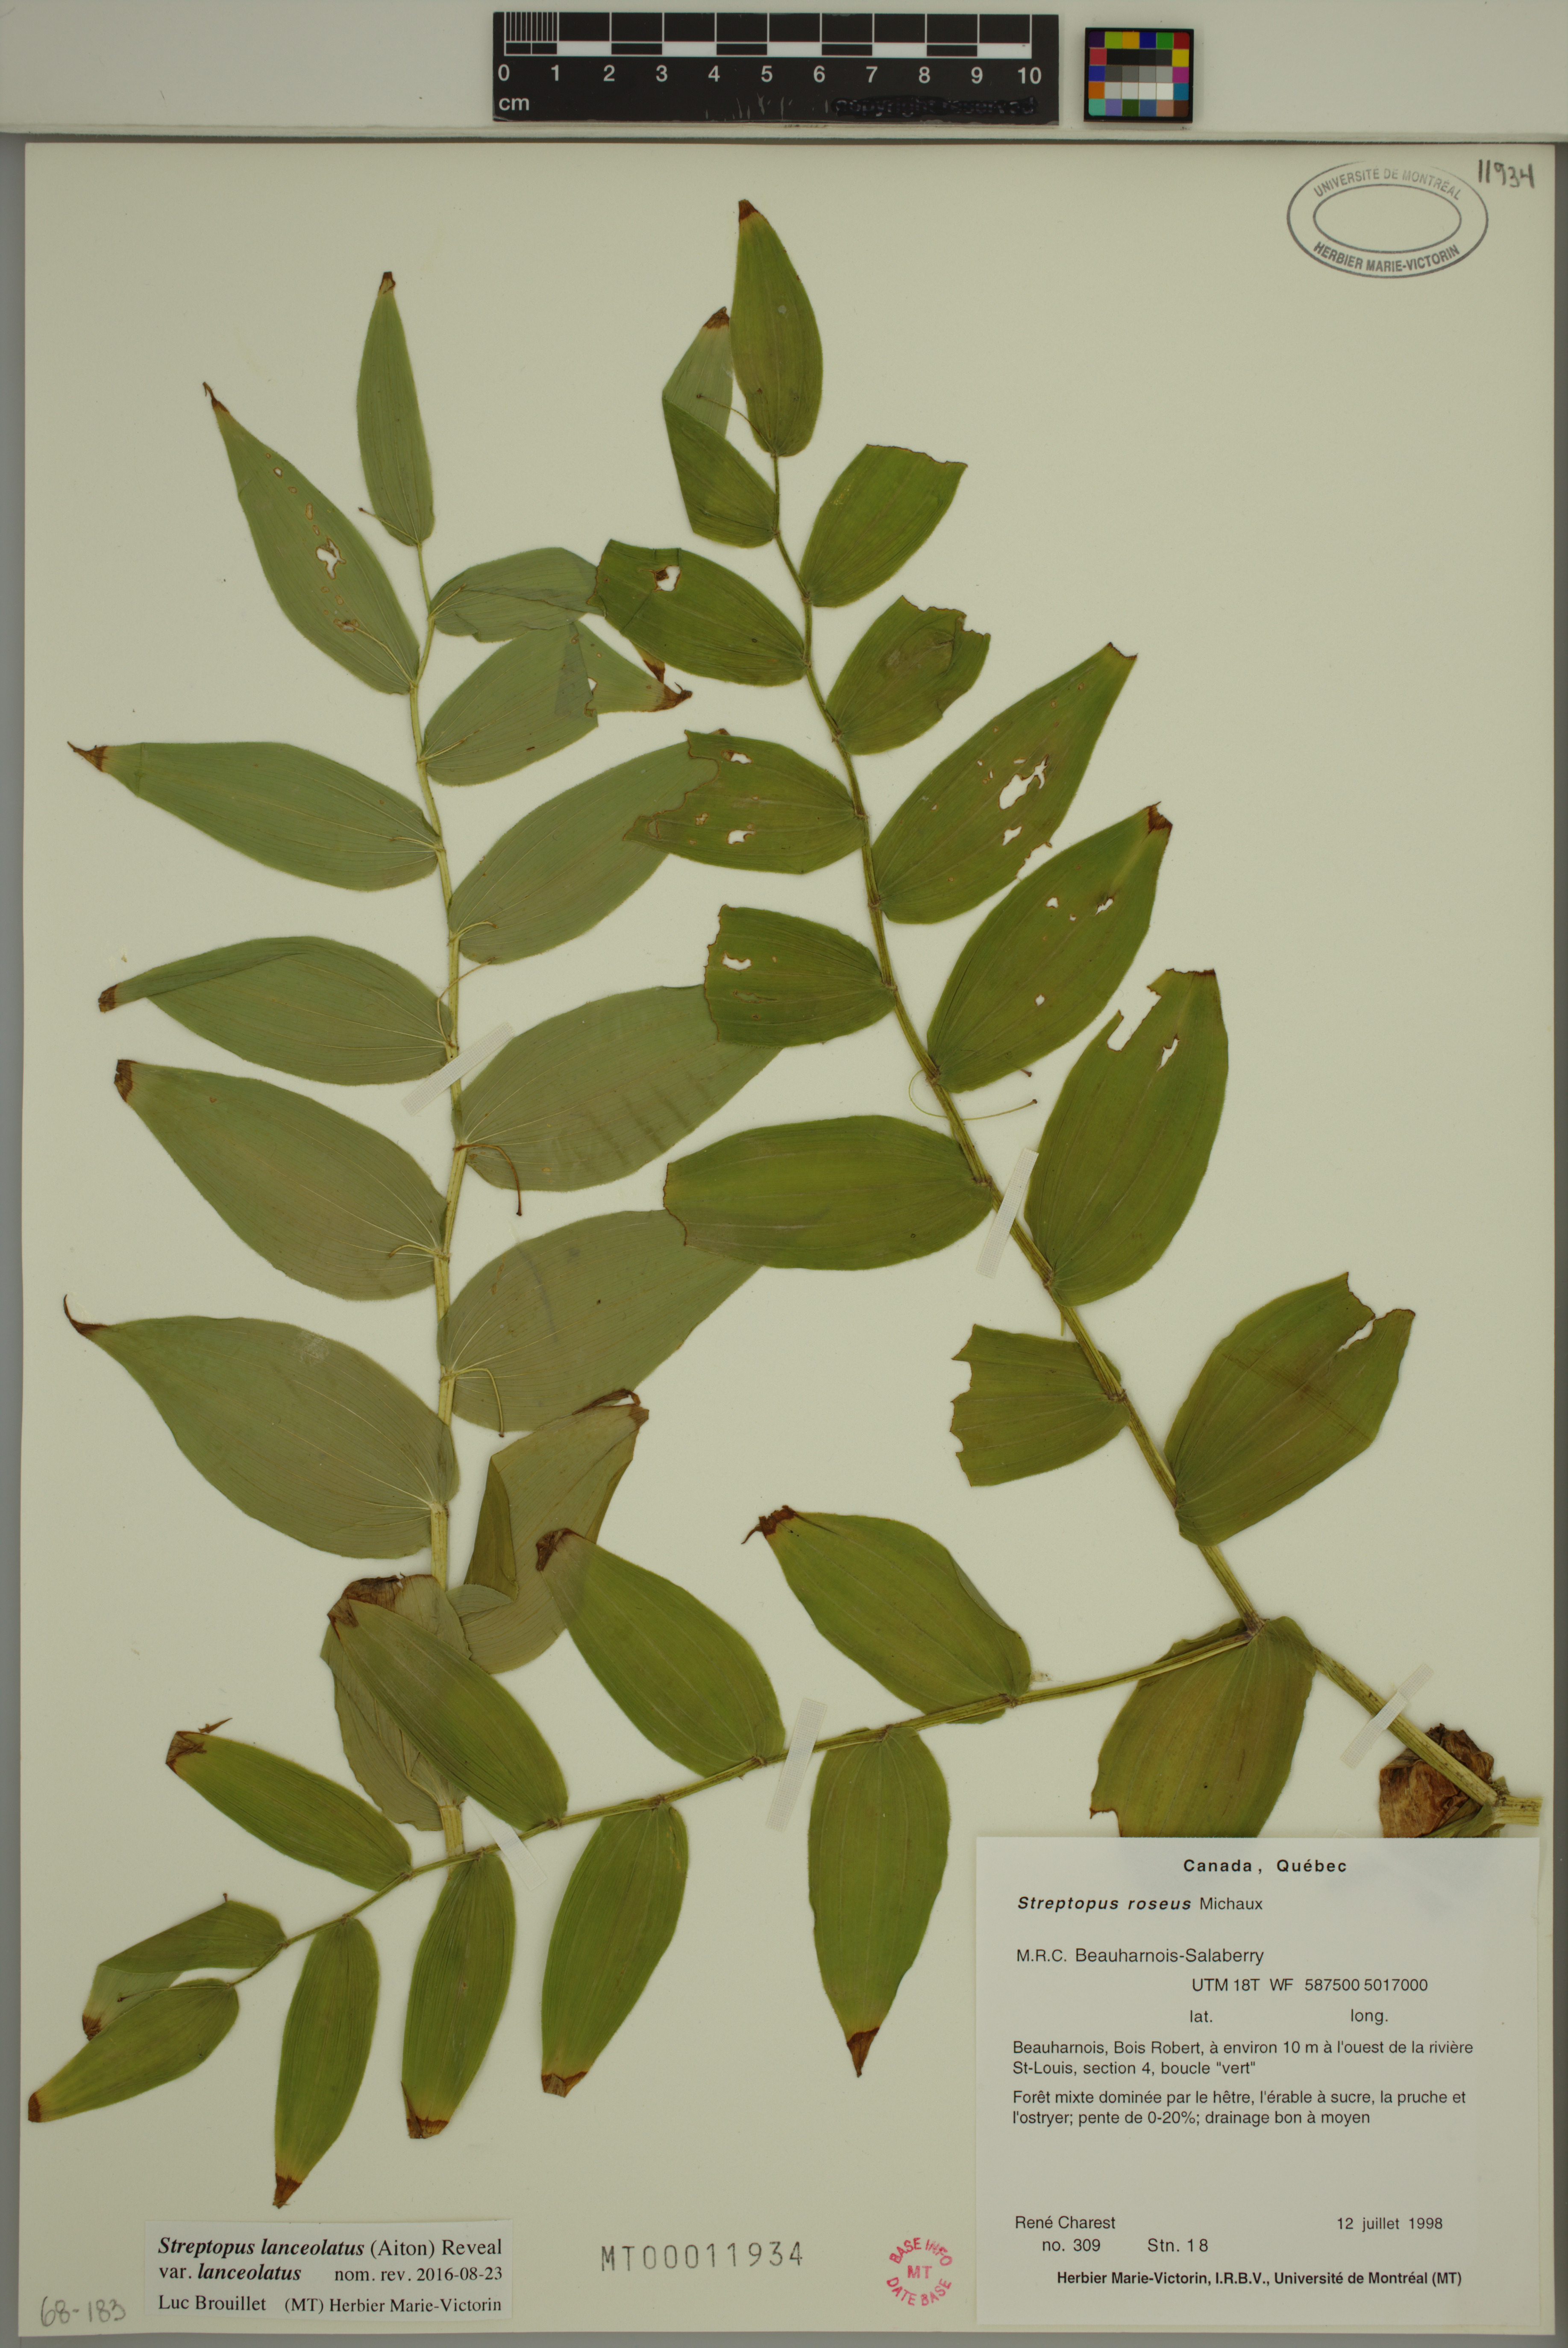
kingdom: Plantae
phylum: Tracheophyta
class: Liliopsida
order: Liliales
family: Liliaceae
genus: Streptopus
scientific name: Streptopus lanceolatus
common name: Rose mandarin
